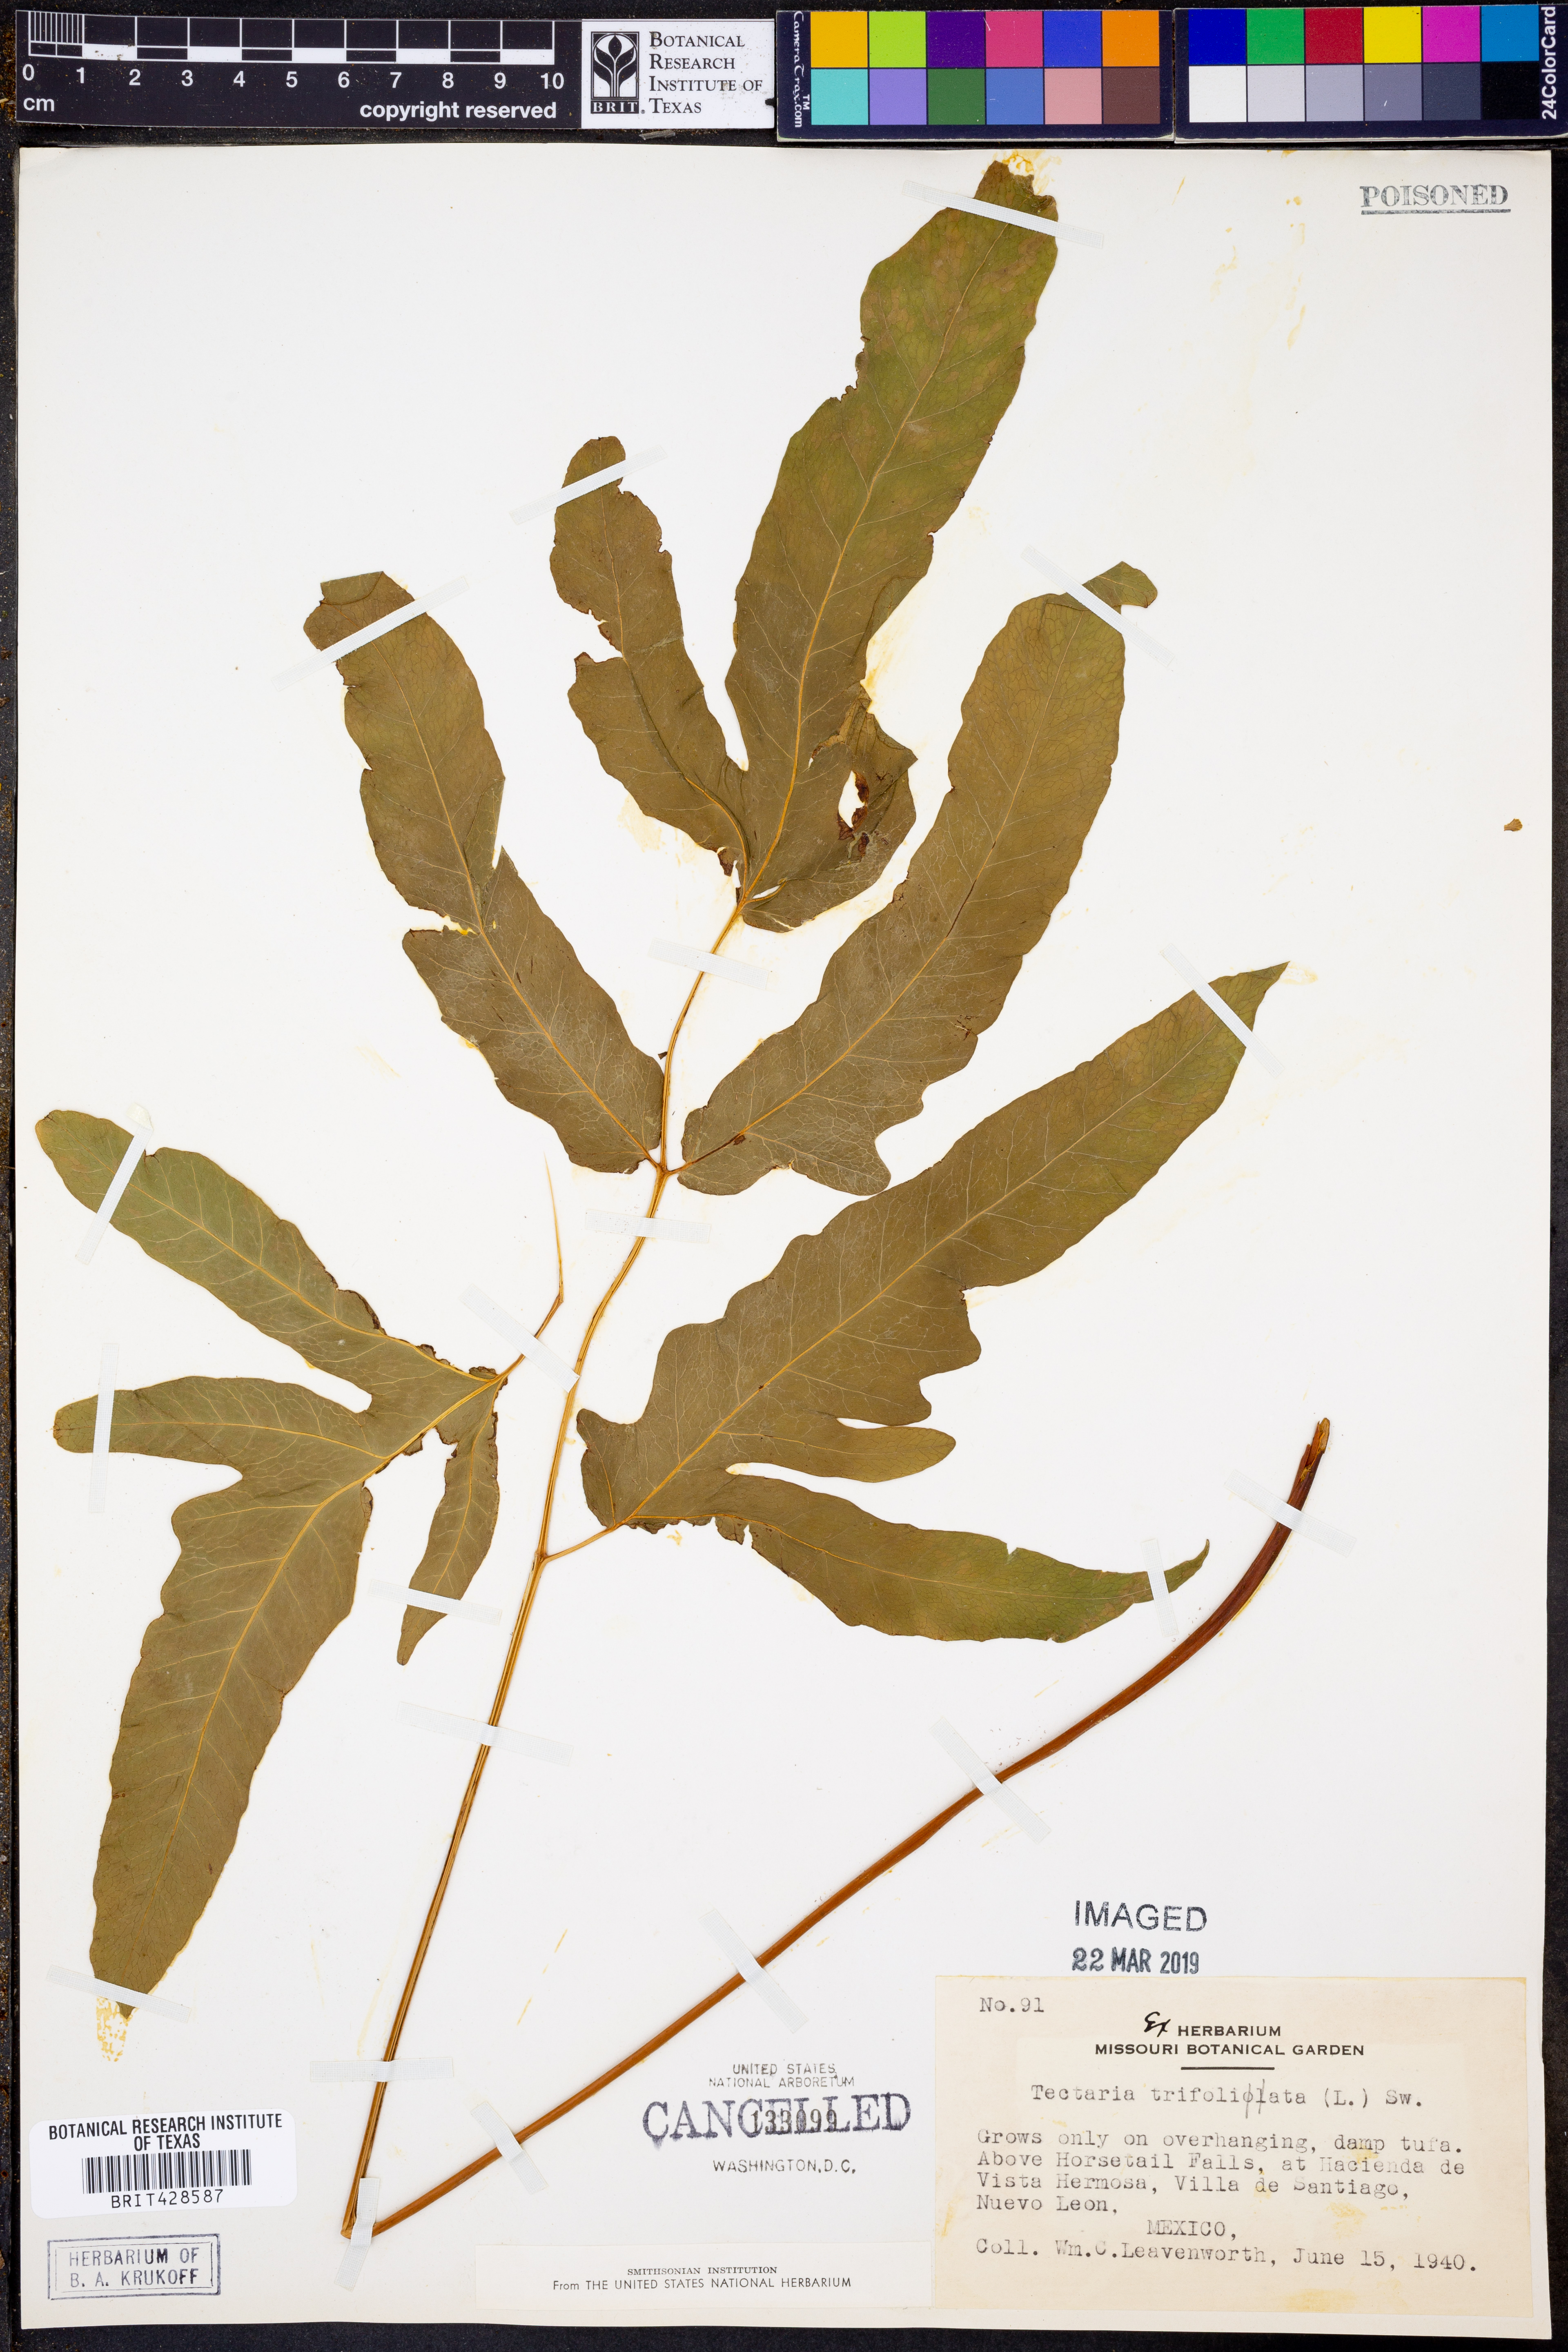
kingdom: Plantae
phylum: Tracheophyta
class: Polypodiopsida
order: Polypodiales
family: Tectariaceae
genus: Tectaria
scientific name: Tectaria trifoliata
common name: Threeleaf halberd fern
